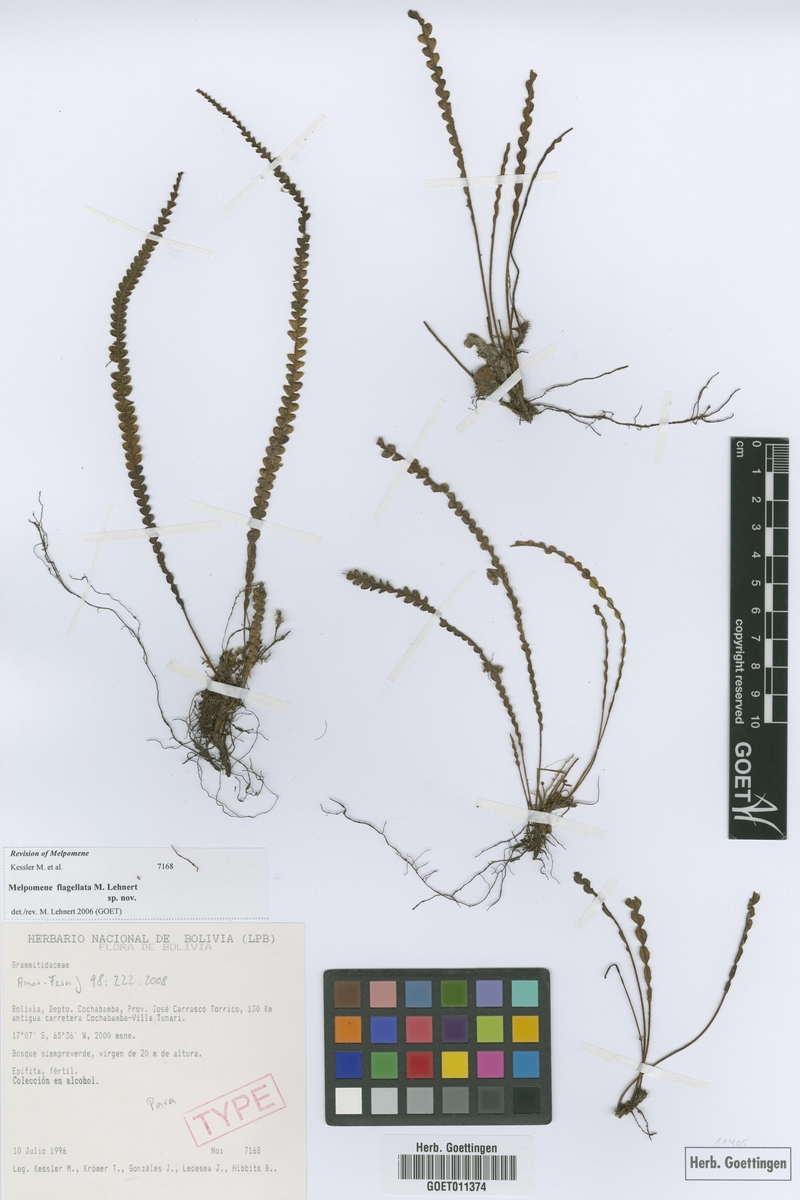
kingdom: Plantae
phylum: Tracheophyta
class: Polypodiopsida
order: Polypodiales
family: Polypodiaceae
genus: Melpomene
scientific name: Melpomene flagellata
